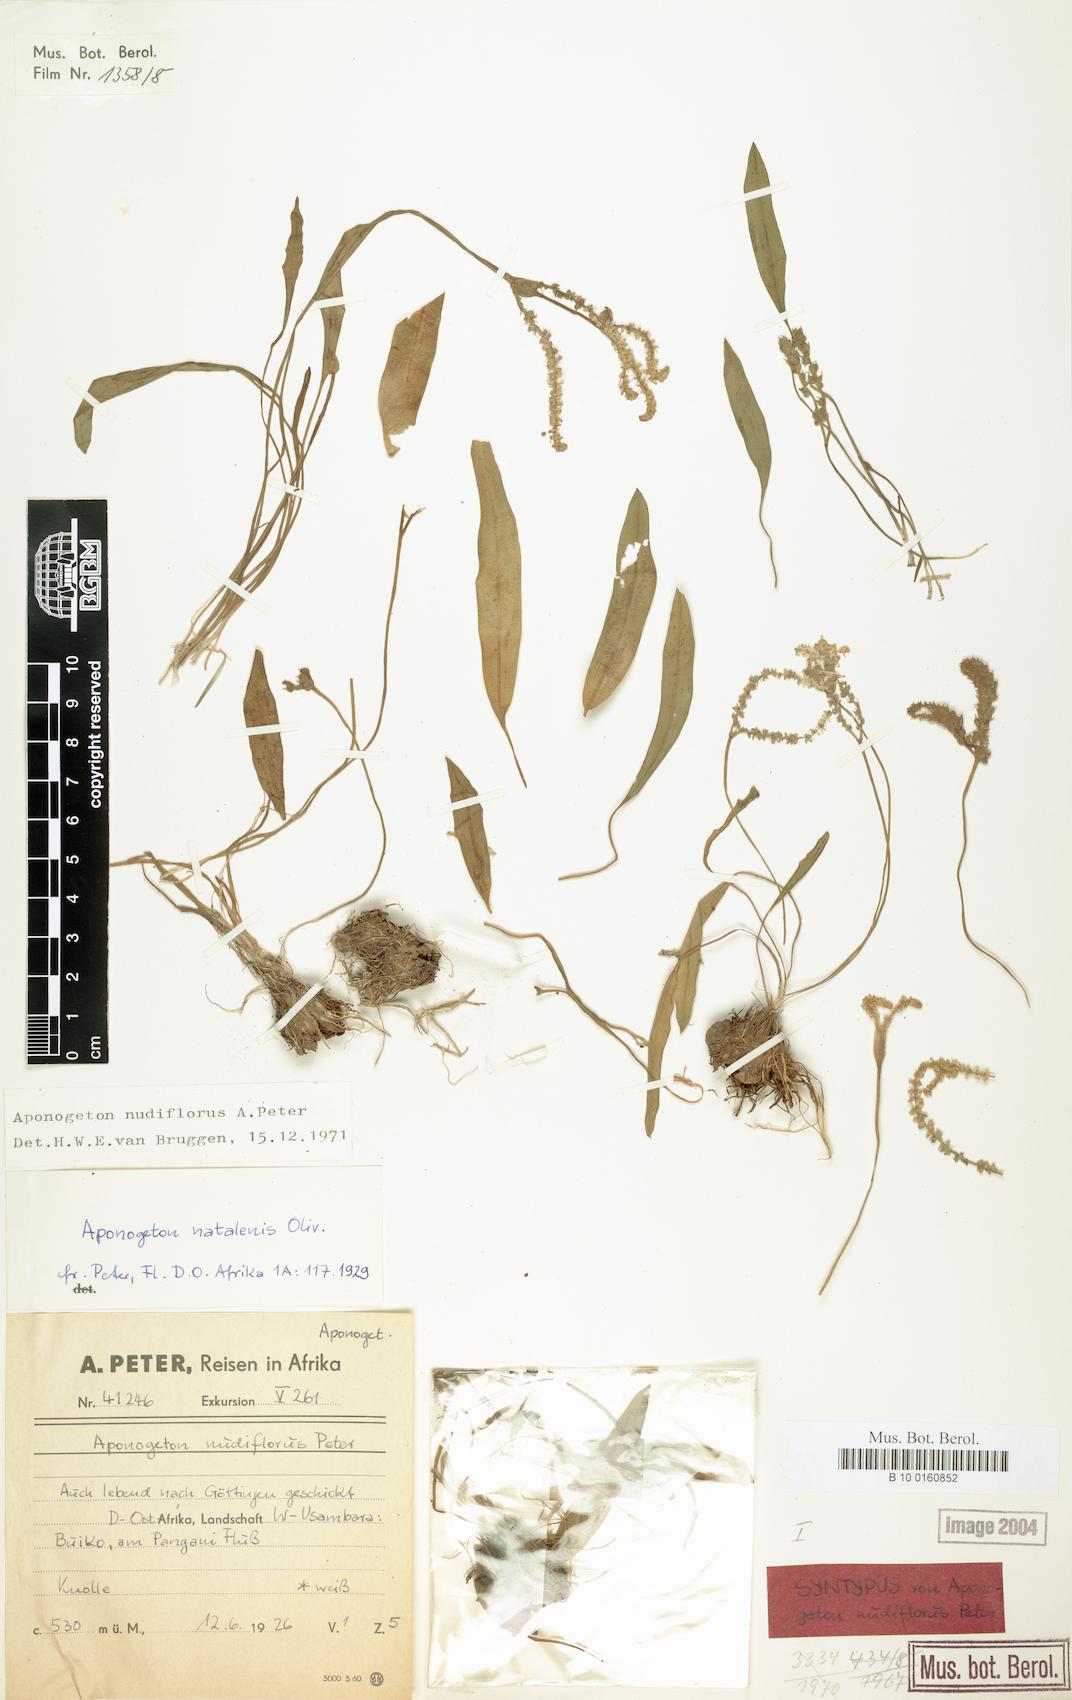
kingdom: Plantae
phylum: Tracheophyta
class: Liliopsida
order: Alismatales
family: Aponogetonaceae
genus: Aponogeton
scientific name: Aponogeton nudiflorus
